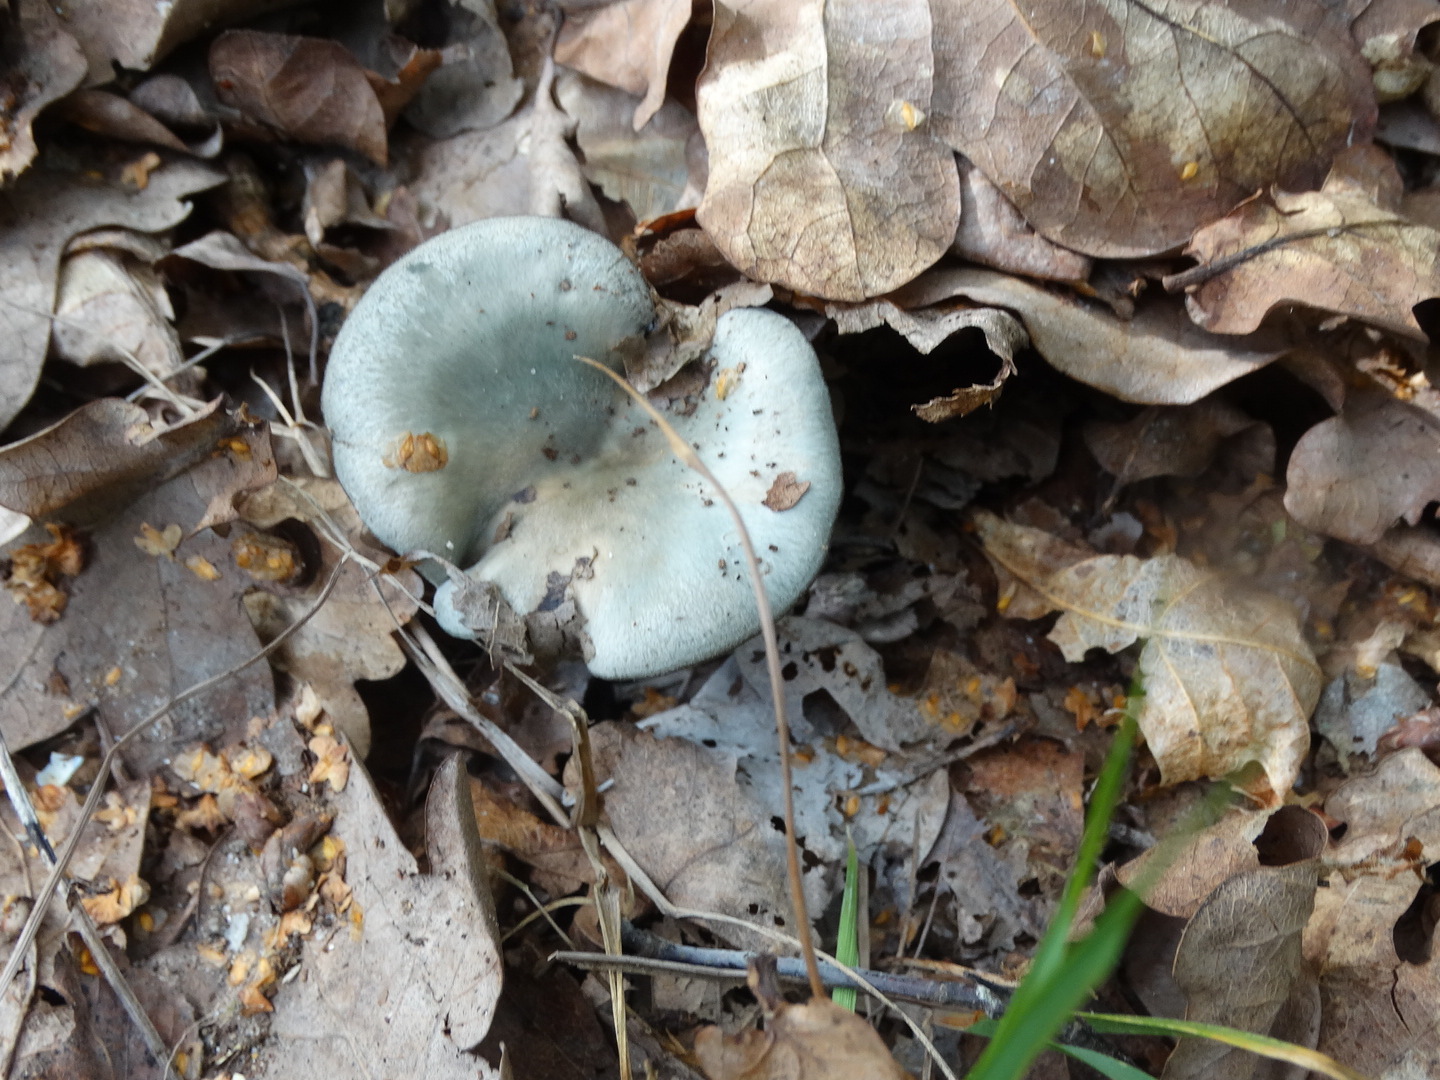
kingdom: Fungi
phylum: Basidiomycota
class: Agaricomycetes
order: Agaricales
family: Tricholomataceae
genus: Clitocybe
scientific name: Clitocybe odora
